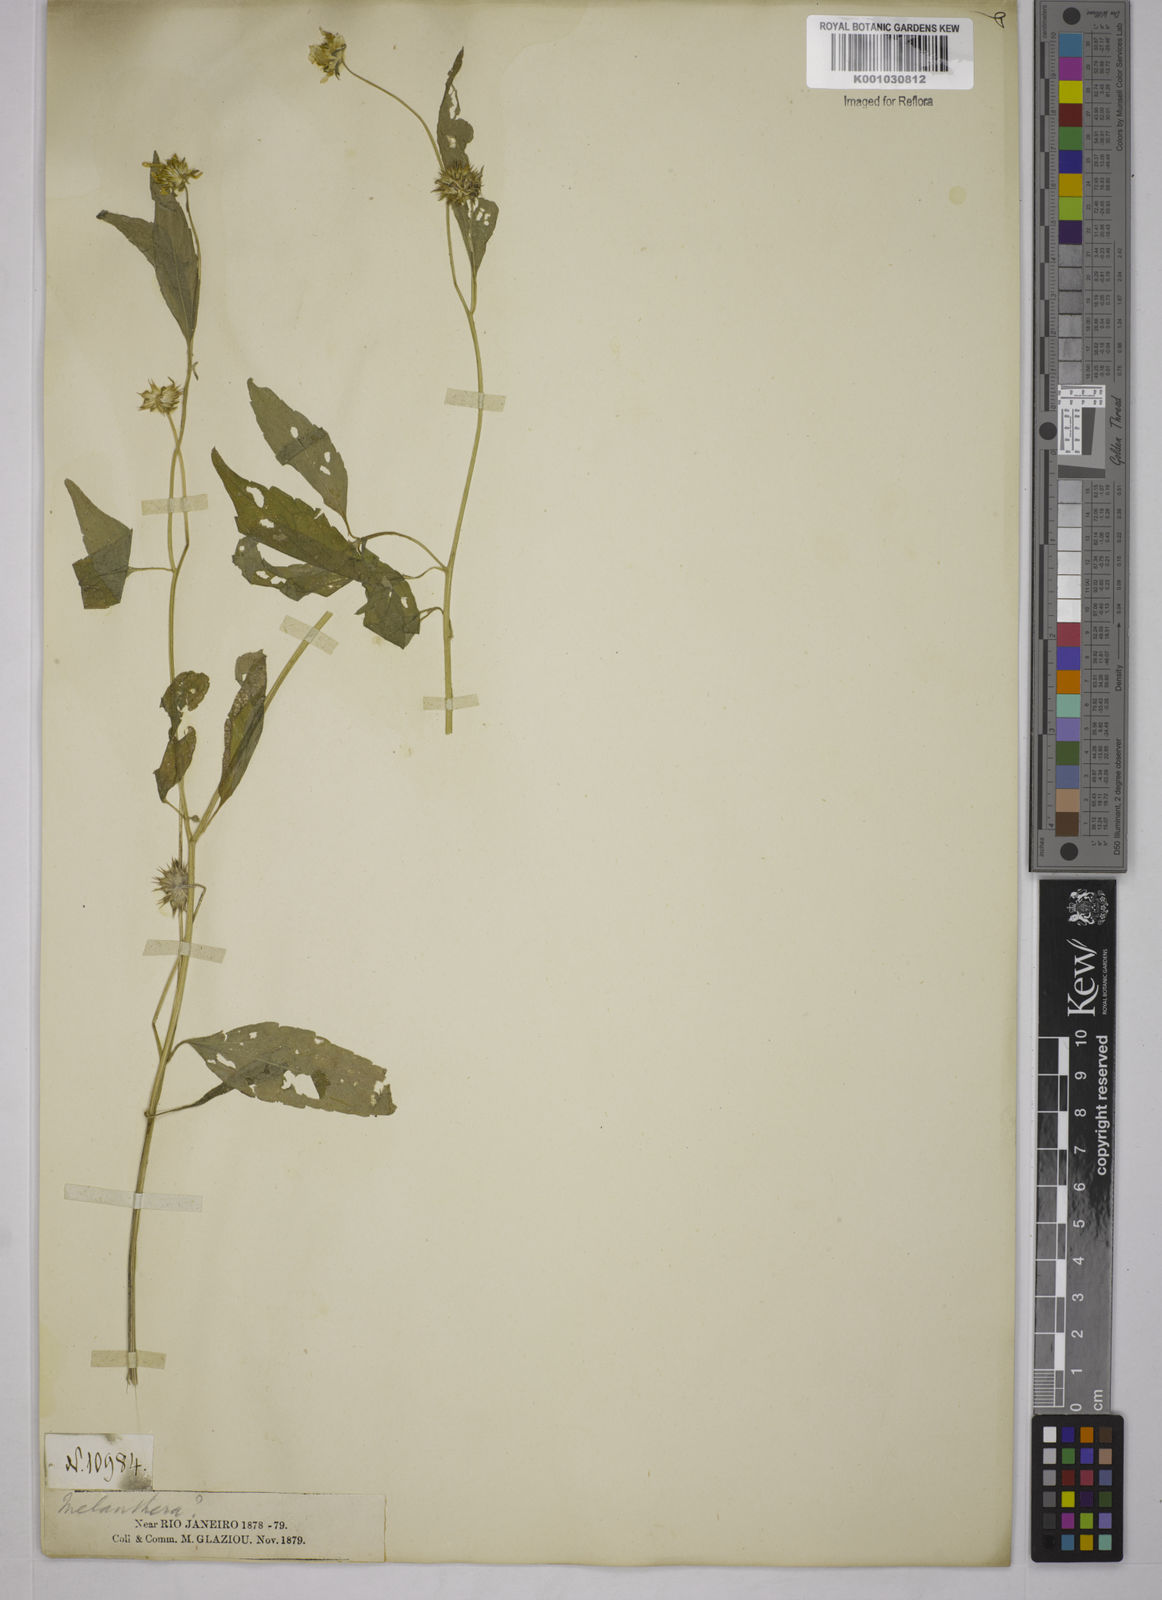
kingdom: Plantae
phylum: Tracheophyta
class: Magnoliopsida
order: Asterales
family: Asteraceae
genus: Echinocephalum
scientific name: Echinocephalum latifolium
